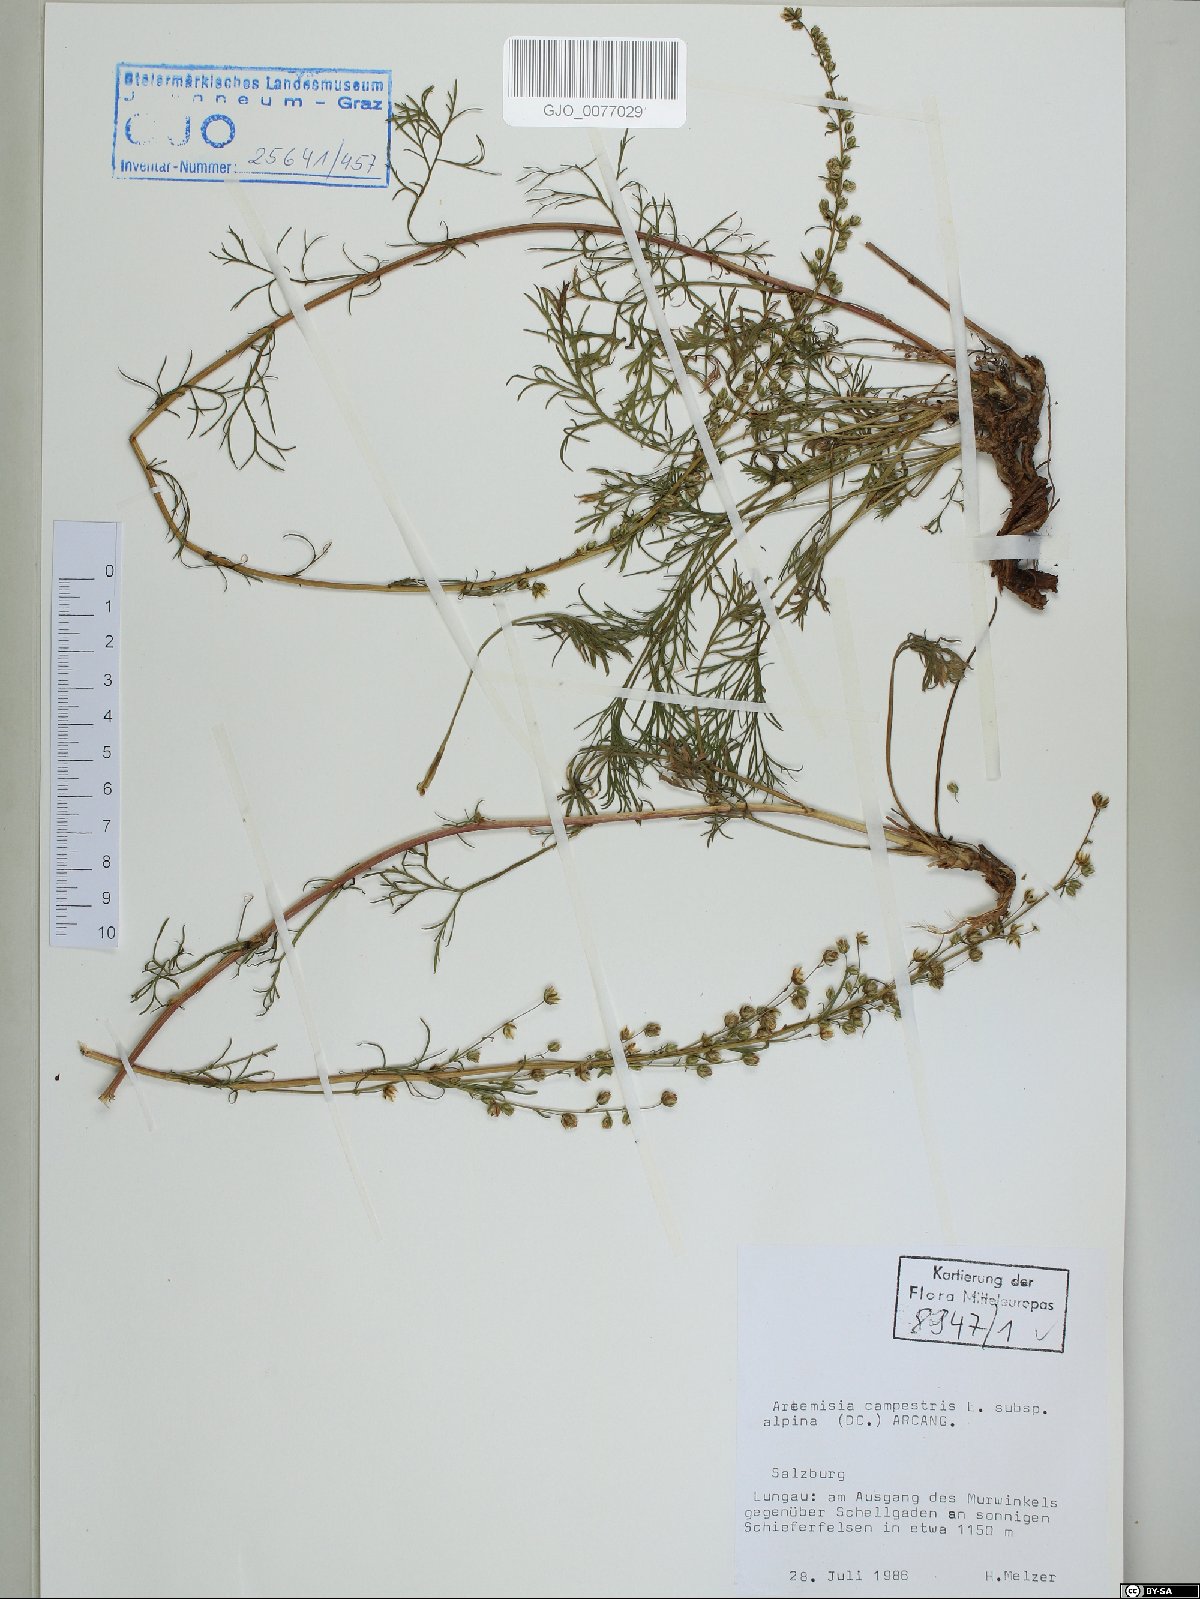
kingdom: Plantae
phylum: Tracheophyta
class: Magnoliopsida
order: Asterales
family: Asteraceae
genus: Artemisia
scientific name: Artemisia campestris
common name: Field wormwood
